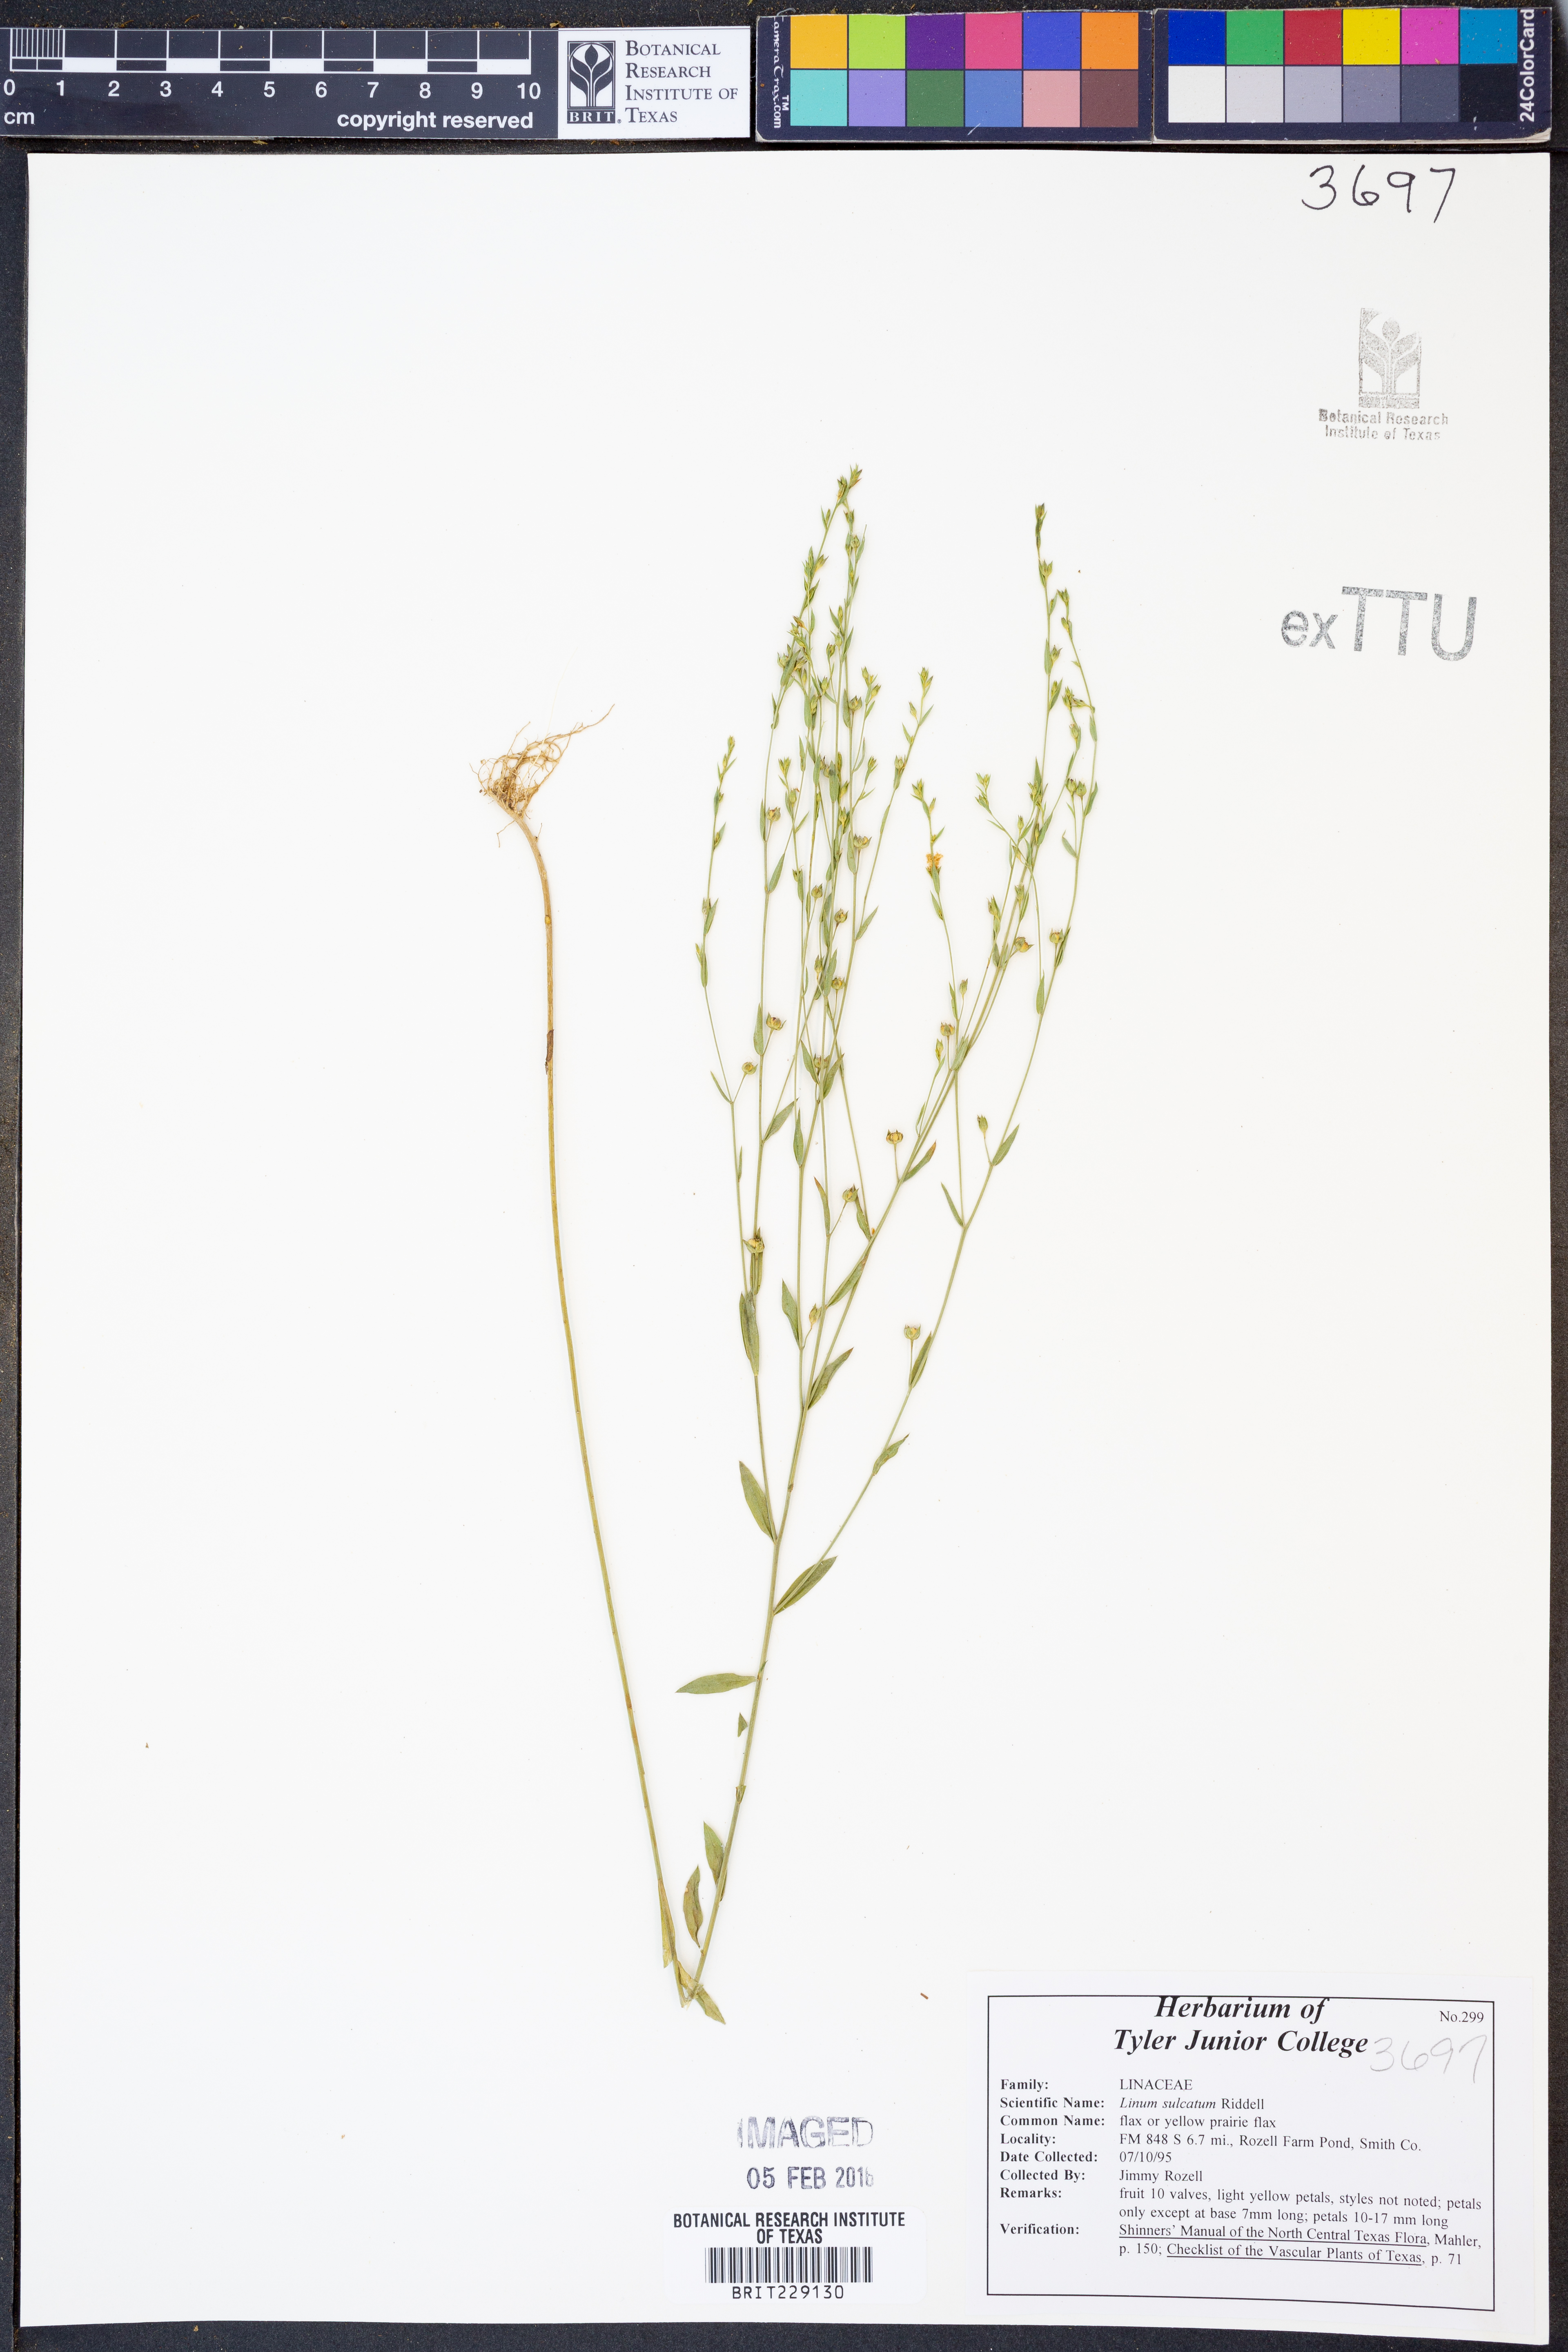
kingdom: Plantae
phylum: Tracheophyta
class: Magnoliopsida
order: Malpighiales
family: Linaceae
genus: Linum
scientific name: Linum sulcatum
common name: Grooved flax
